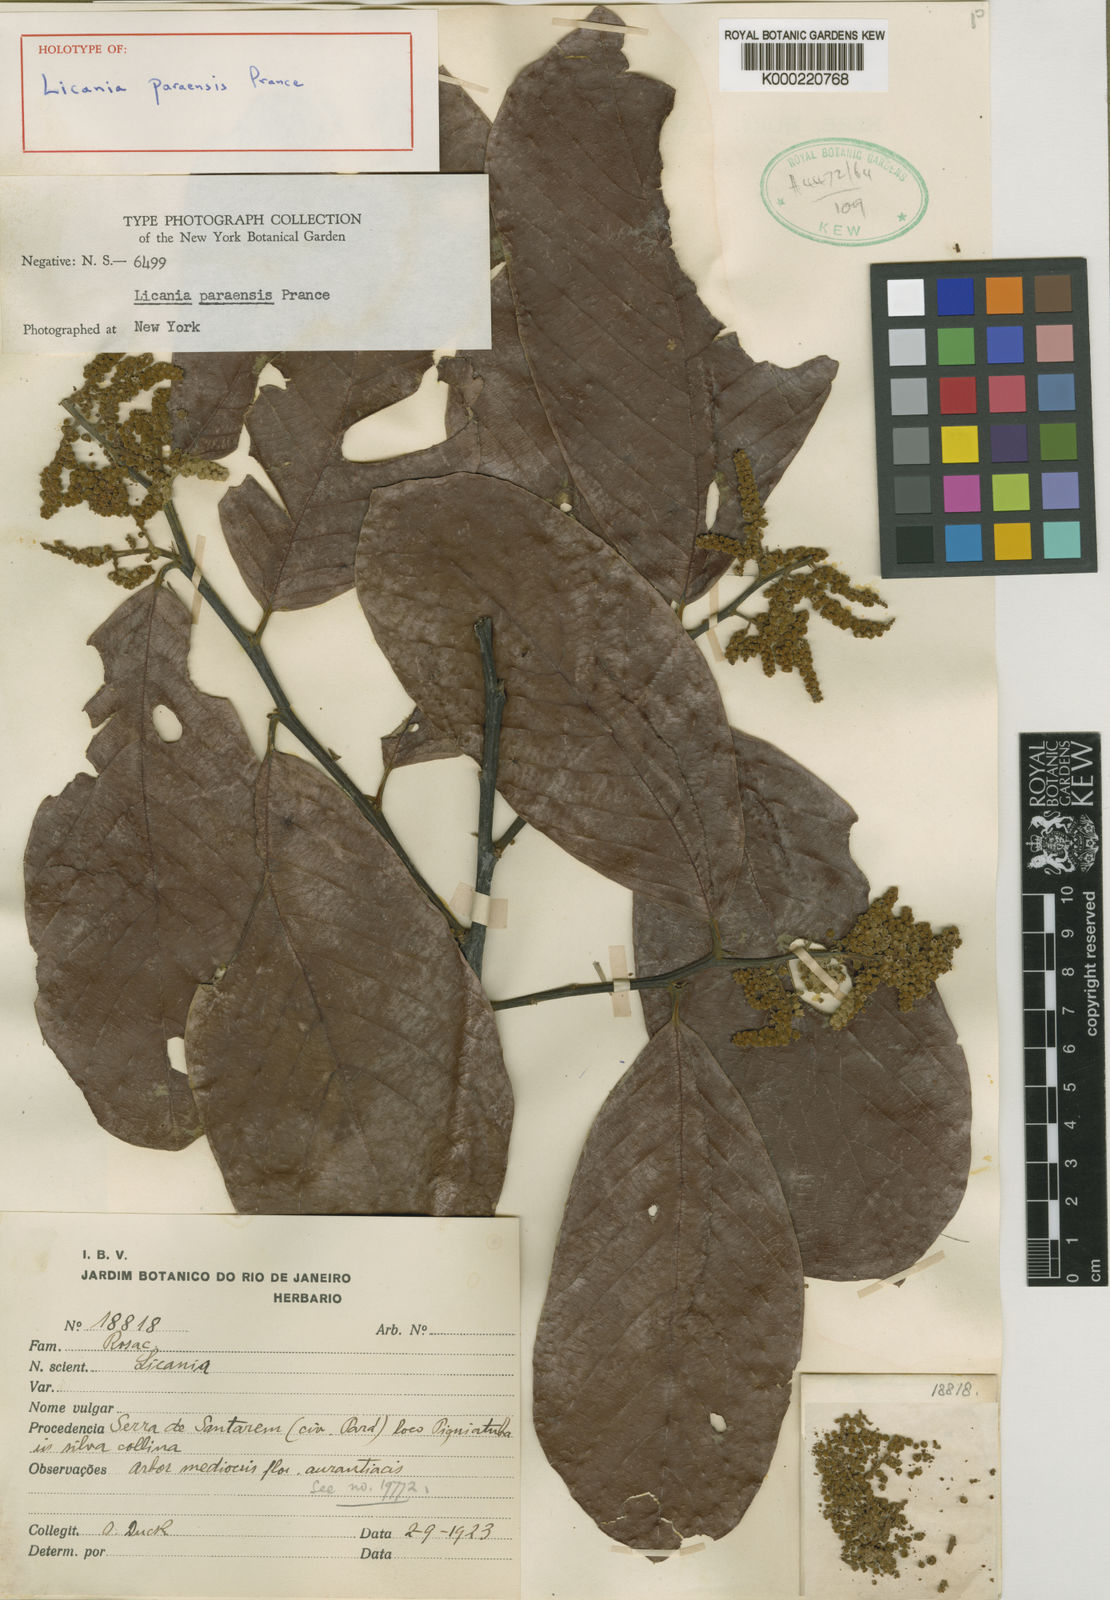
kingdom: Plantae
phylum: Tracheophyta
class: Magnoliopsida
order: Malpighiales
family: Chrysobalanaceae
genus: Licania
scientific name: Licania paraensis
